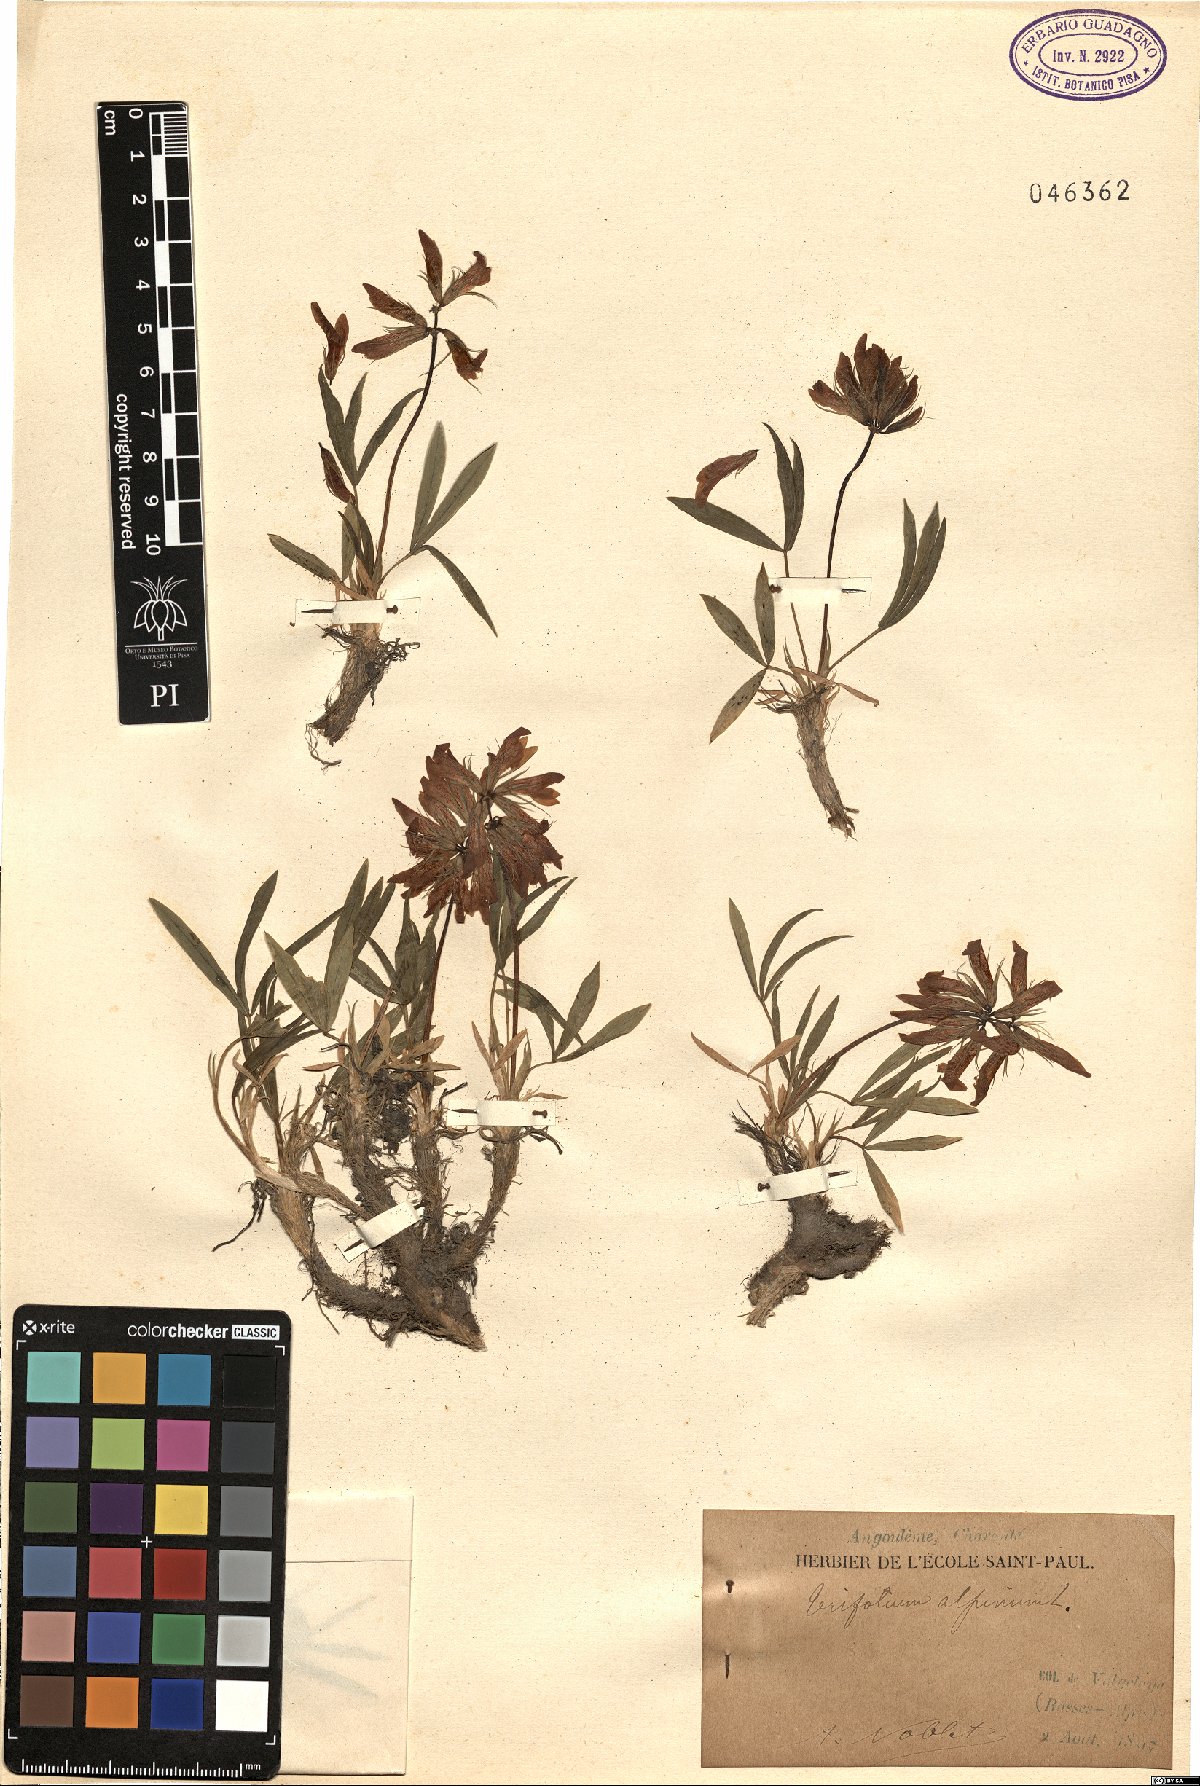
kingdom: Plantae
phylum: Tracheophyta
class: Magnoliopsida
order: Fabales
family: Fabaceae
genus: Trifolium
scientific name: Trifolium alpinum
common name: Alpine clover
